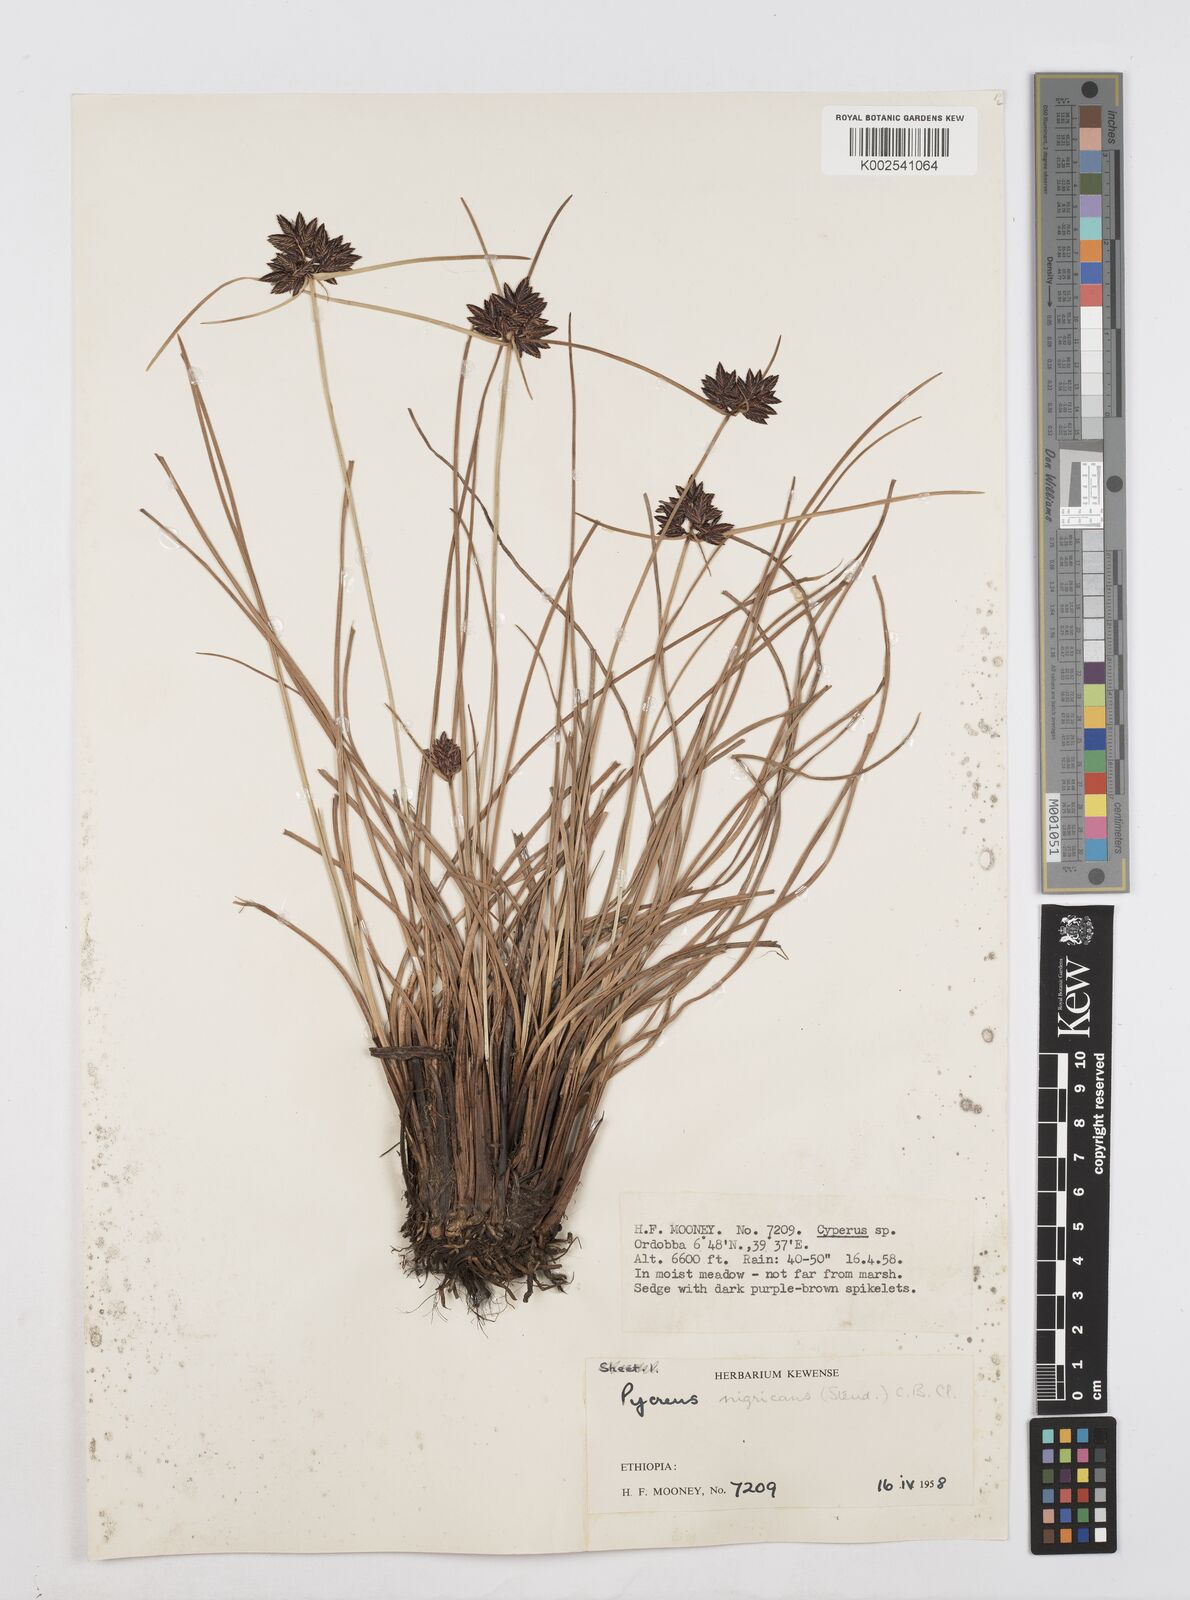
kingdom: Plantae
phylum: Tracheophyta
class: Liliopsida
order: Poales
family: Cyperaceae
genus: Cyperus
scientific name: Cyperus nigricans
